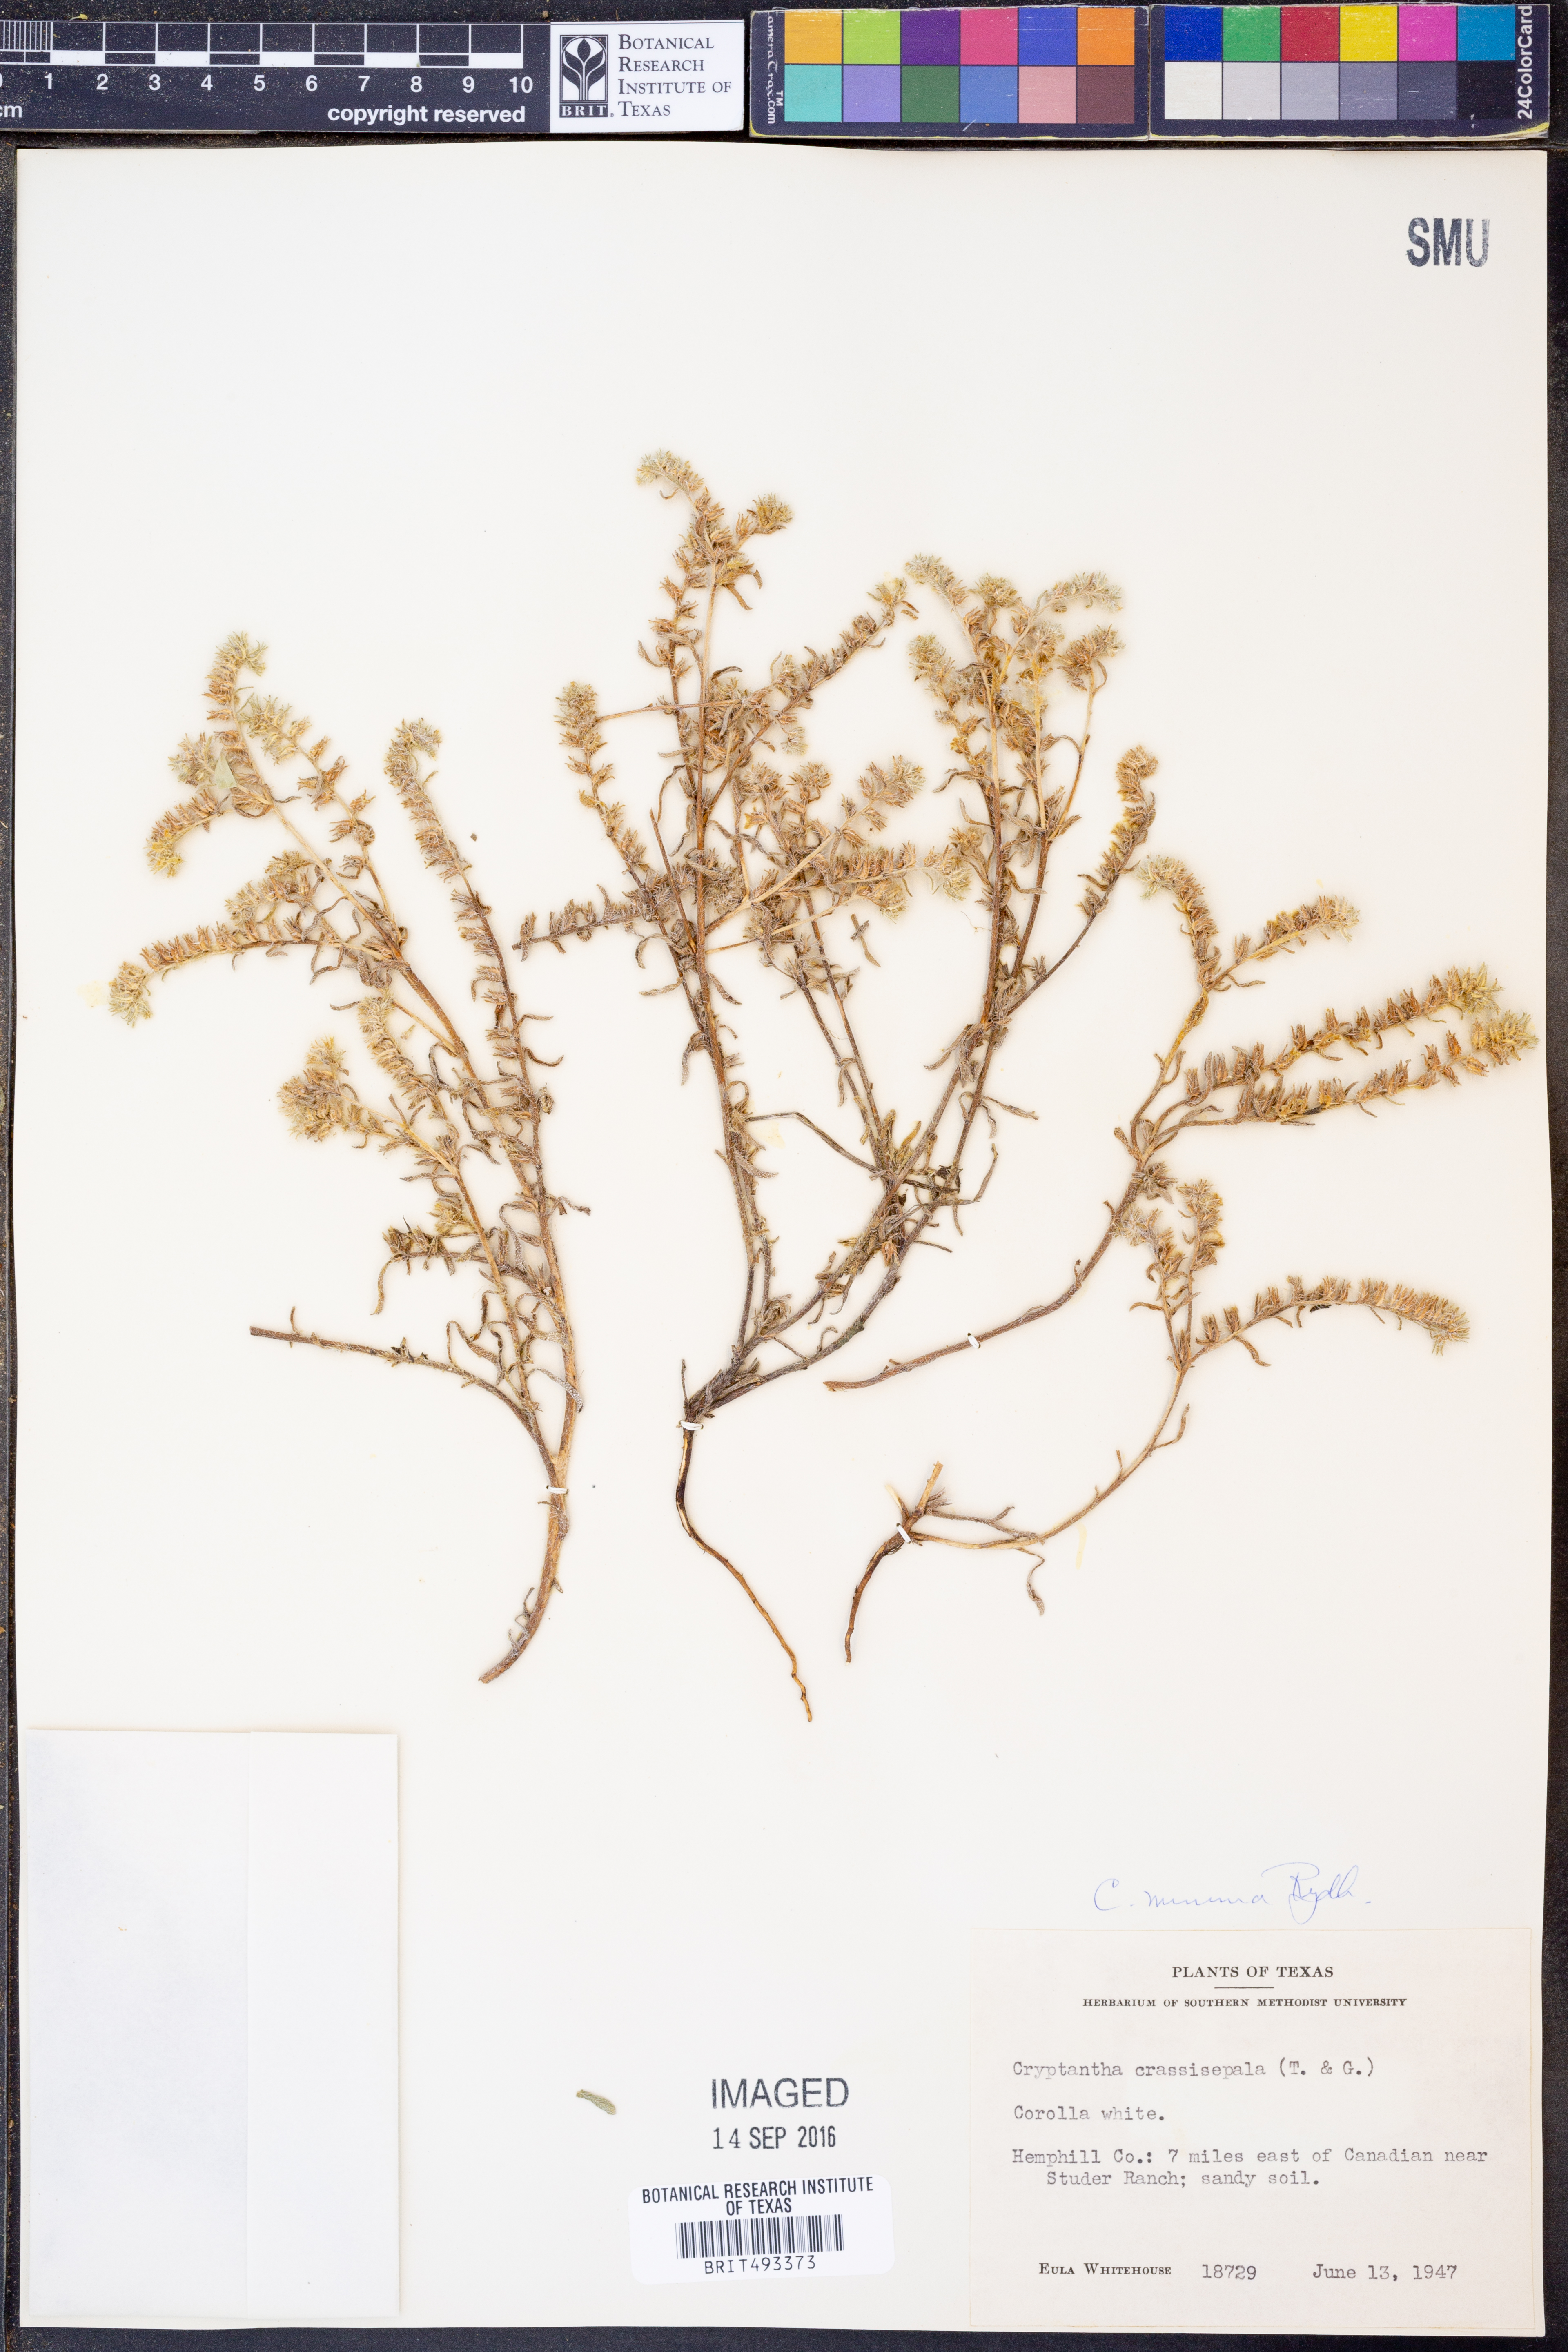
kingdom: Plantae
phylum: Tracheophyta
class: Magnoliopsida
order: Boraginales
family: Boraginaceae
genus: Cryptantha
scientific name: Cryptantha minima
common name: Little cat's-eye
